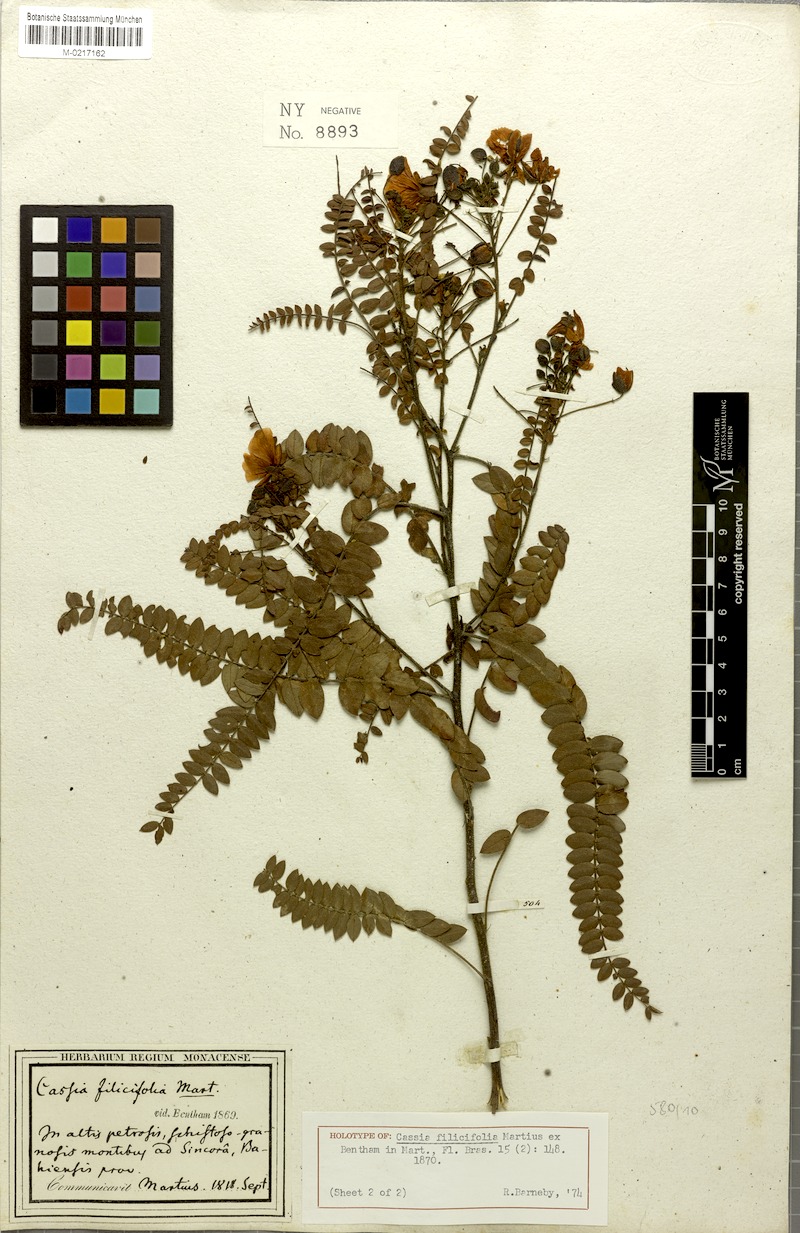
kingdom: Plantae
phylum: Tracheophyta
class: Magnoliopsida
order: Fabales
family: Fabaceae
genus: Chamaecrista
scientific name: Chamaecrista filicifolia
